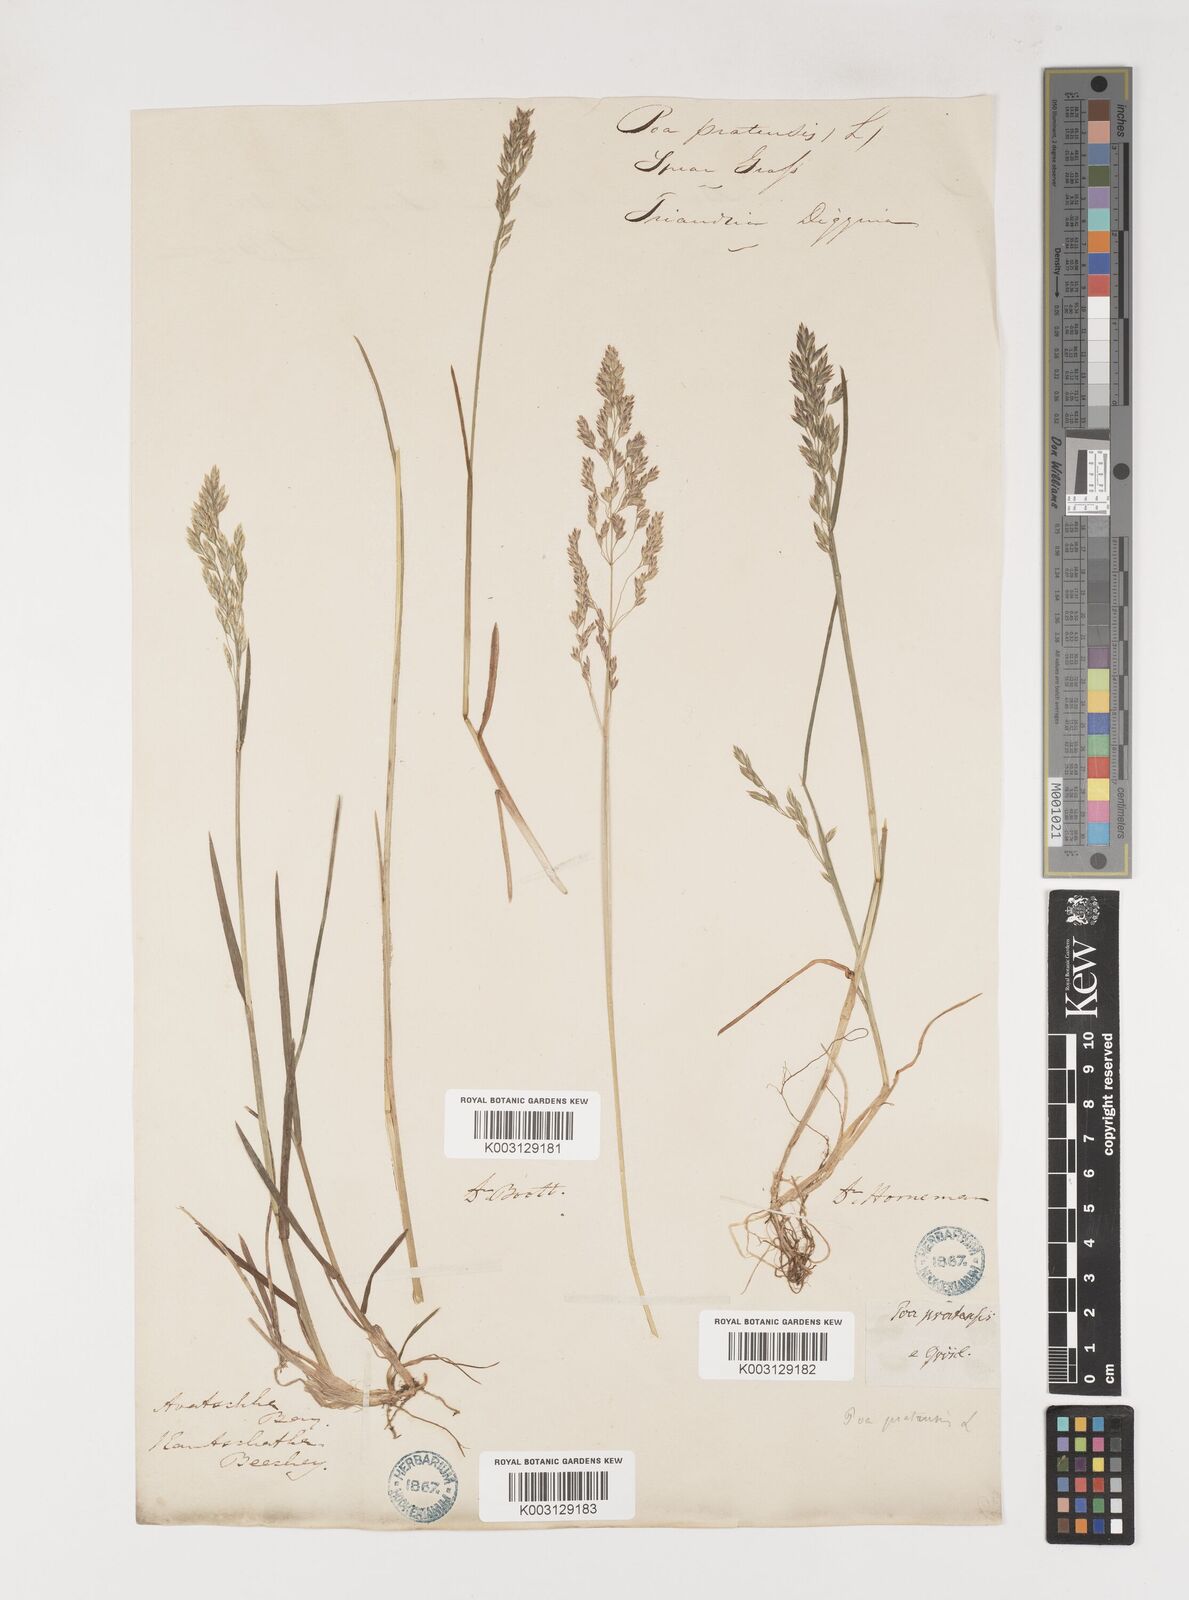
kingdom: Plantae
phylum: Tracheophyta
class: Liliopsida
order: Poales
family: Poaceae
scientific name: Poaceae
